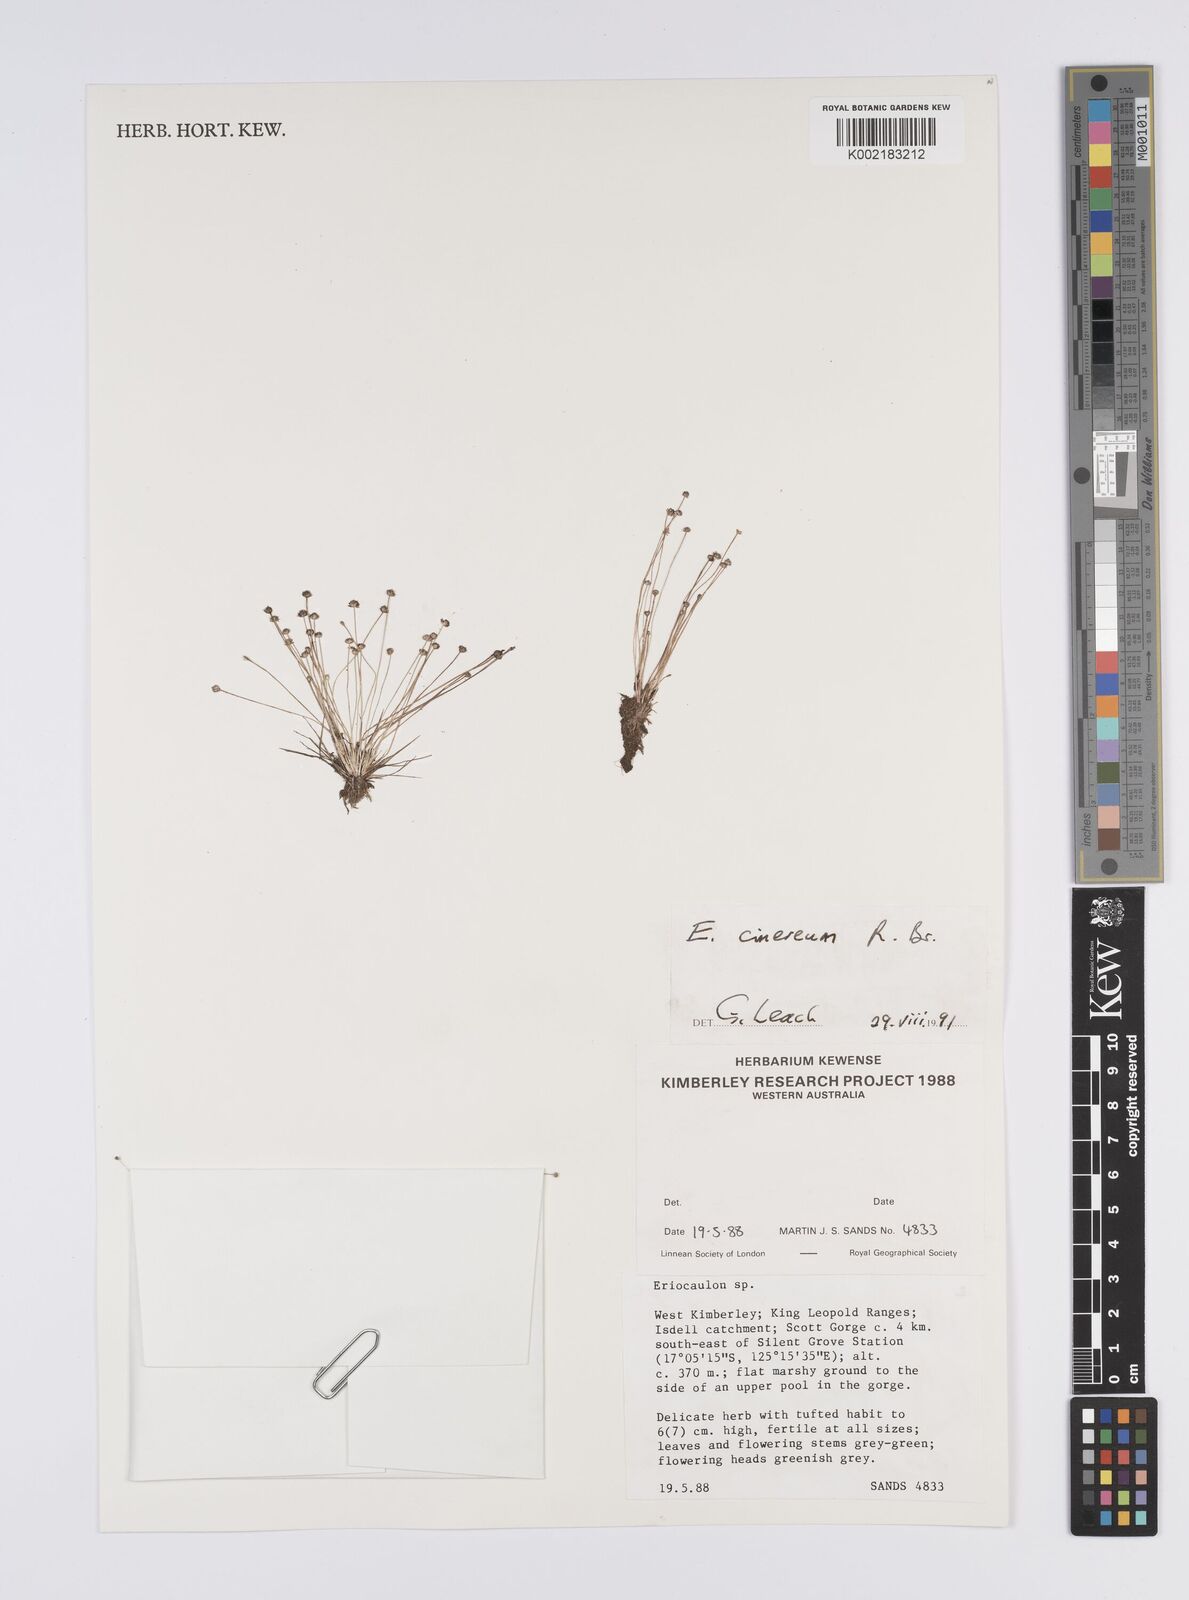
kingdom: Plantae
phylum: Tracheophyta
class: Liliopsida
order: Poales
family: Eriocaulaceae
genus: Eriocaulon
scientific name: Eriocaulon cinereum
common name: Ashy pipewort
